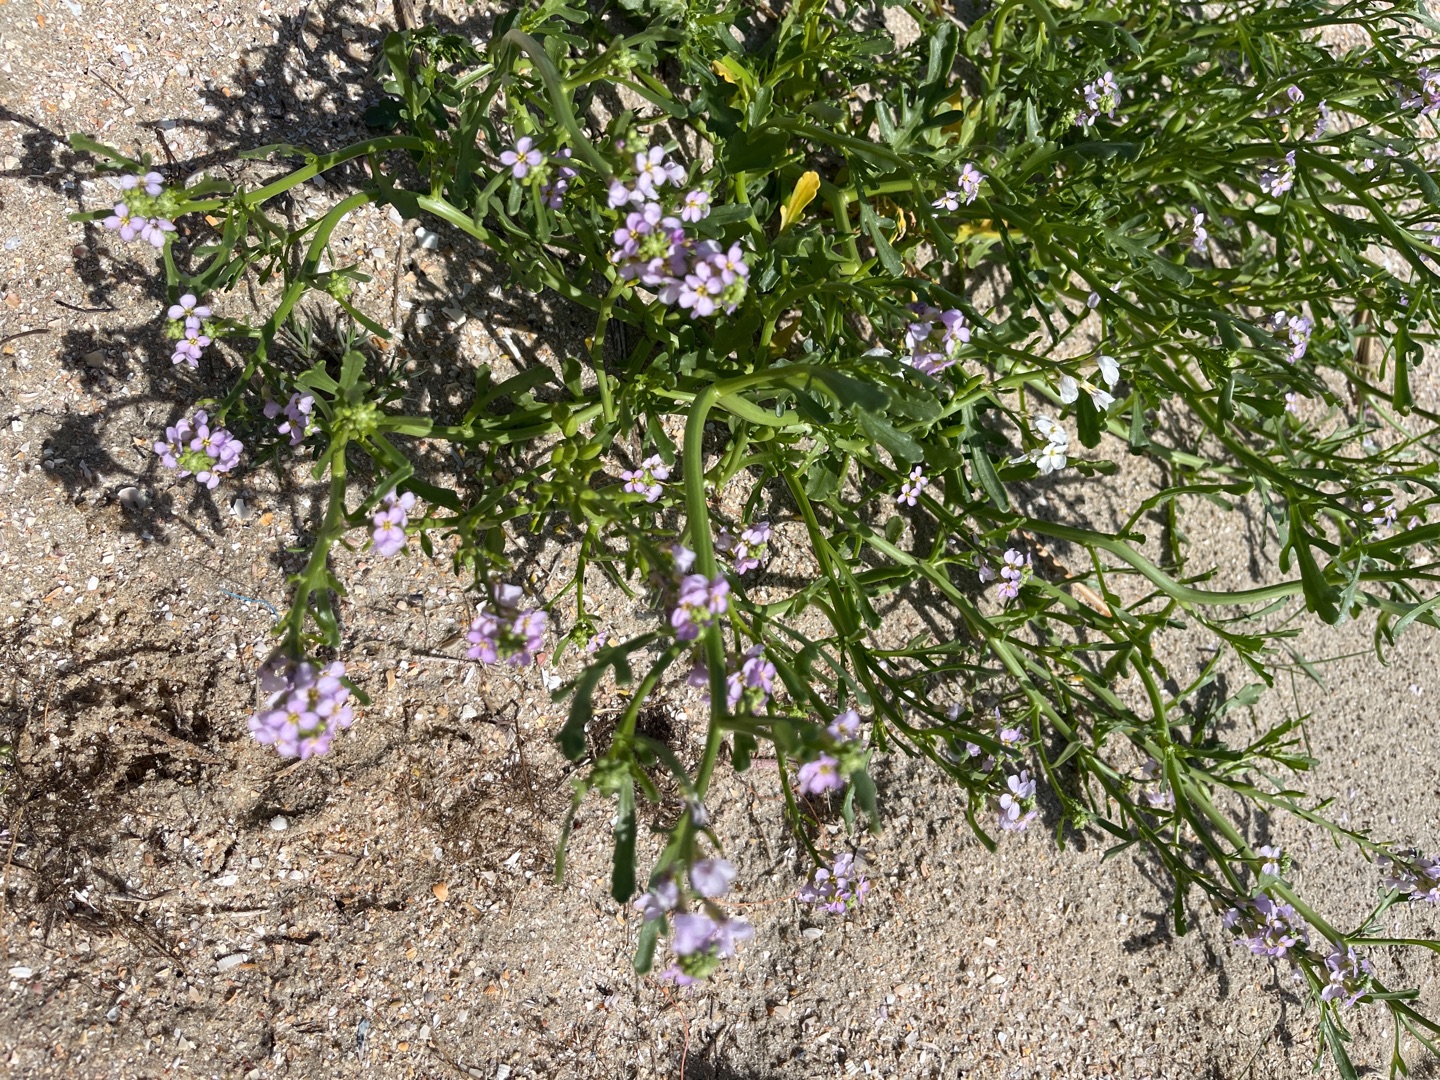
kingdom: Plantae
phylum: Tracheophyta
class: Magnoliopsida
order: Brassicales
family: Brassicaceae
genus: Cakile
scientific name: Cakile maritima
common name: Strandsennep
